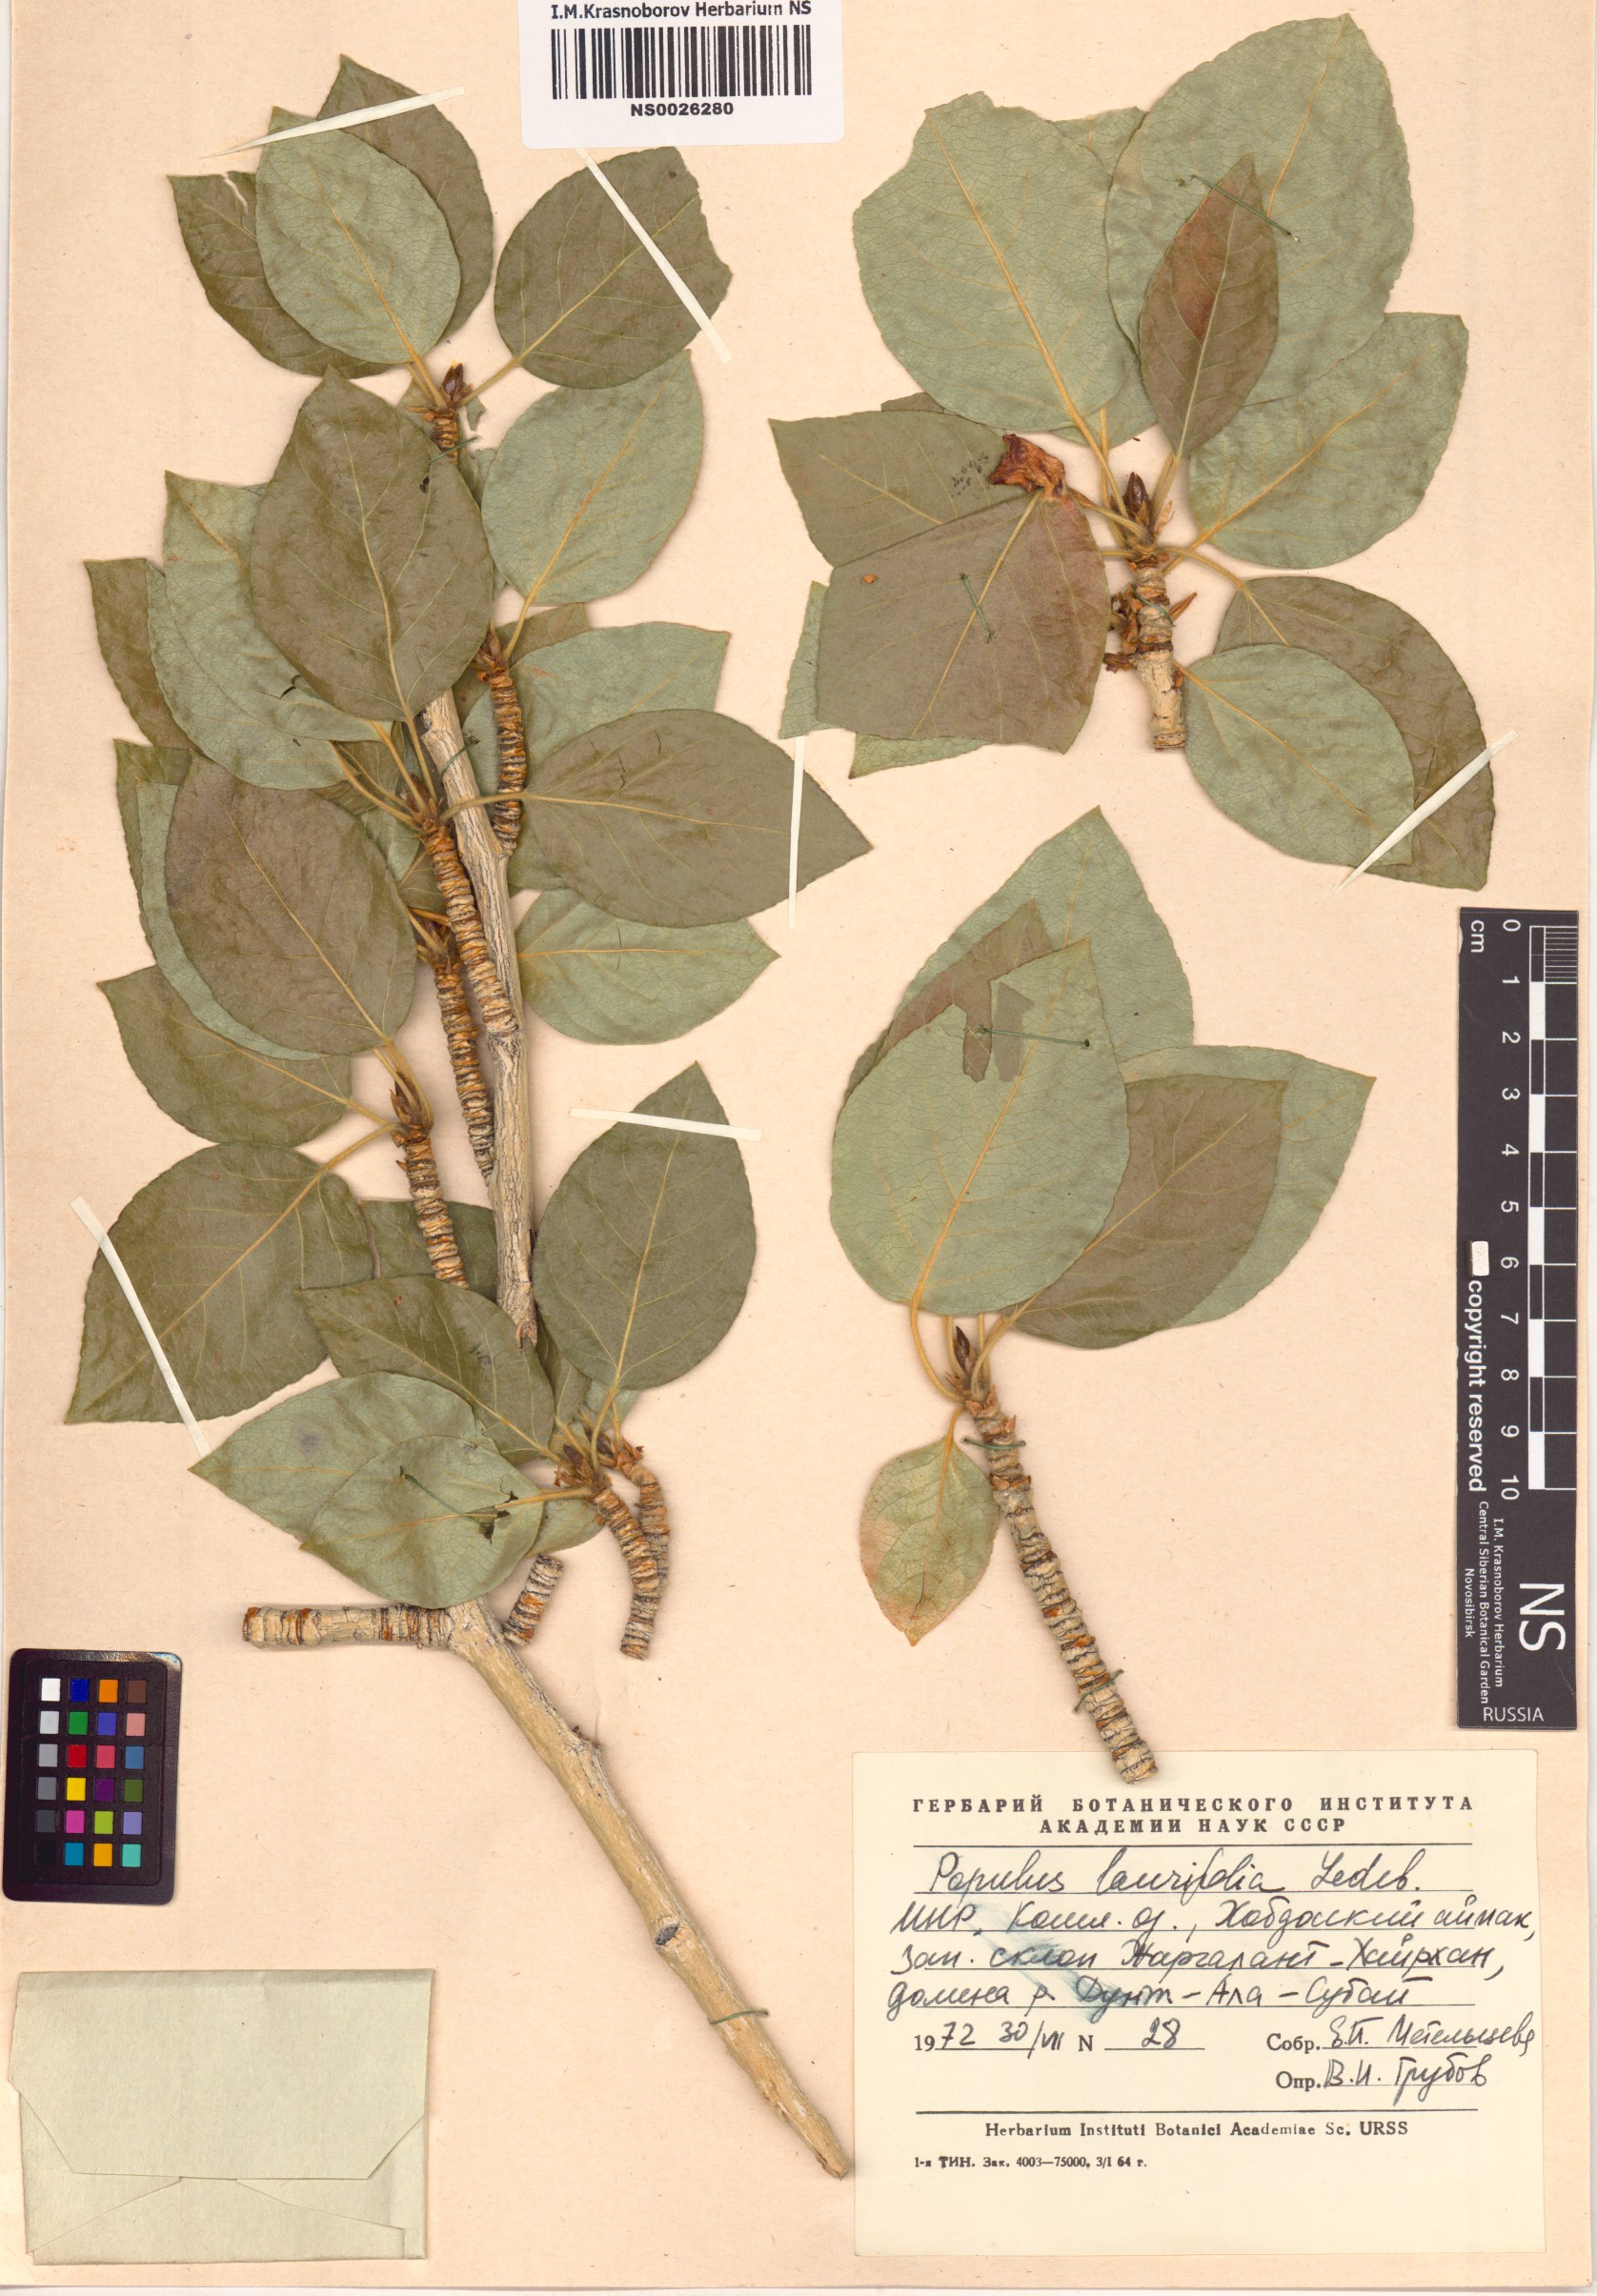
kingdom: Plantae
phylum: Tracheophyta
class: Magnoliopsida
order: Malpighiales
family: Salicaceae
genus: Populus
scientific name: Populus laurifolia
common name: Laurel-leaf poplar
